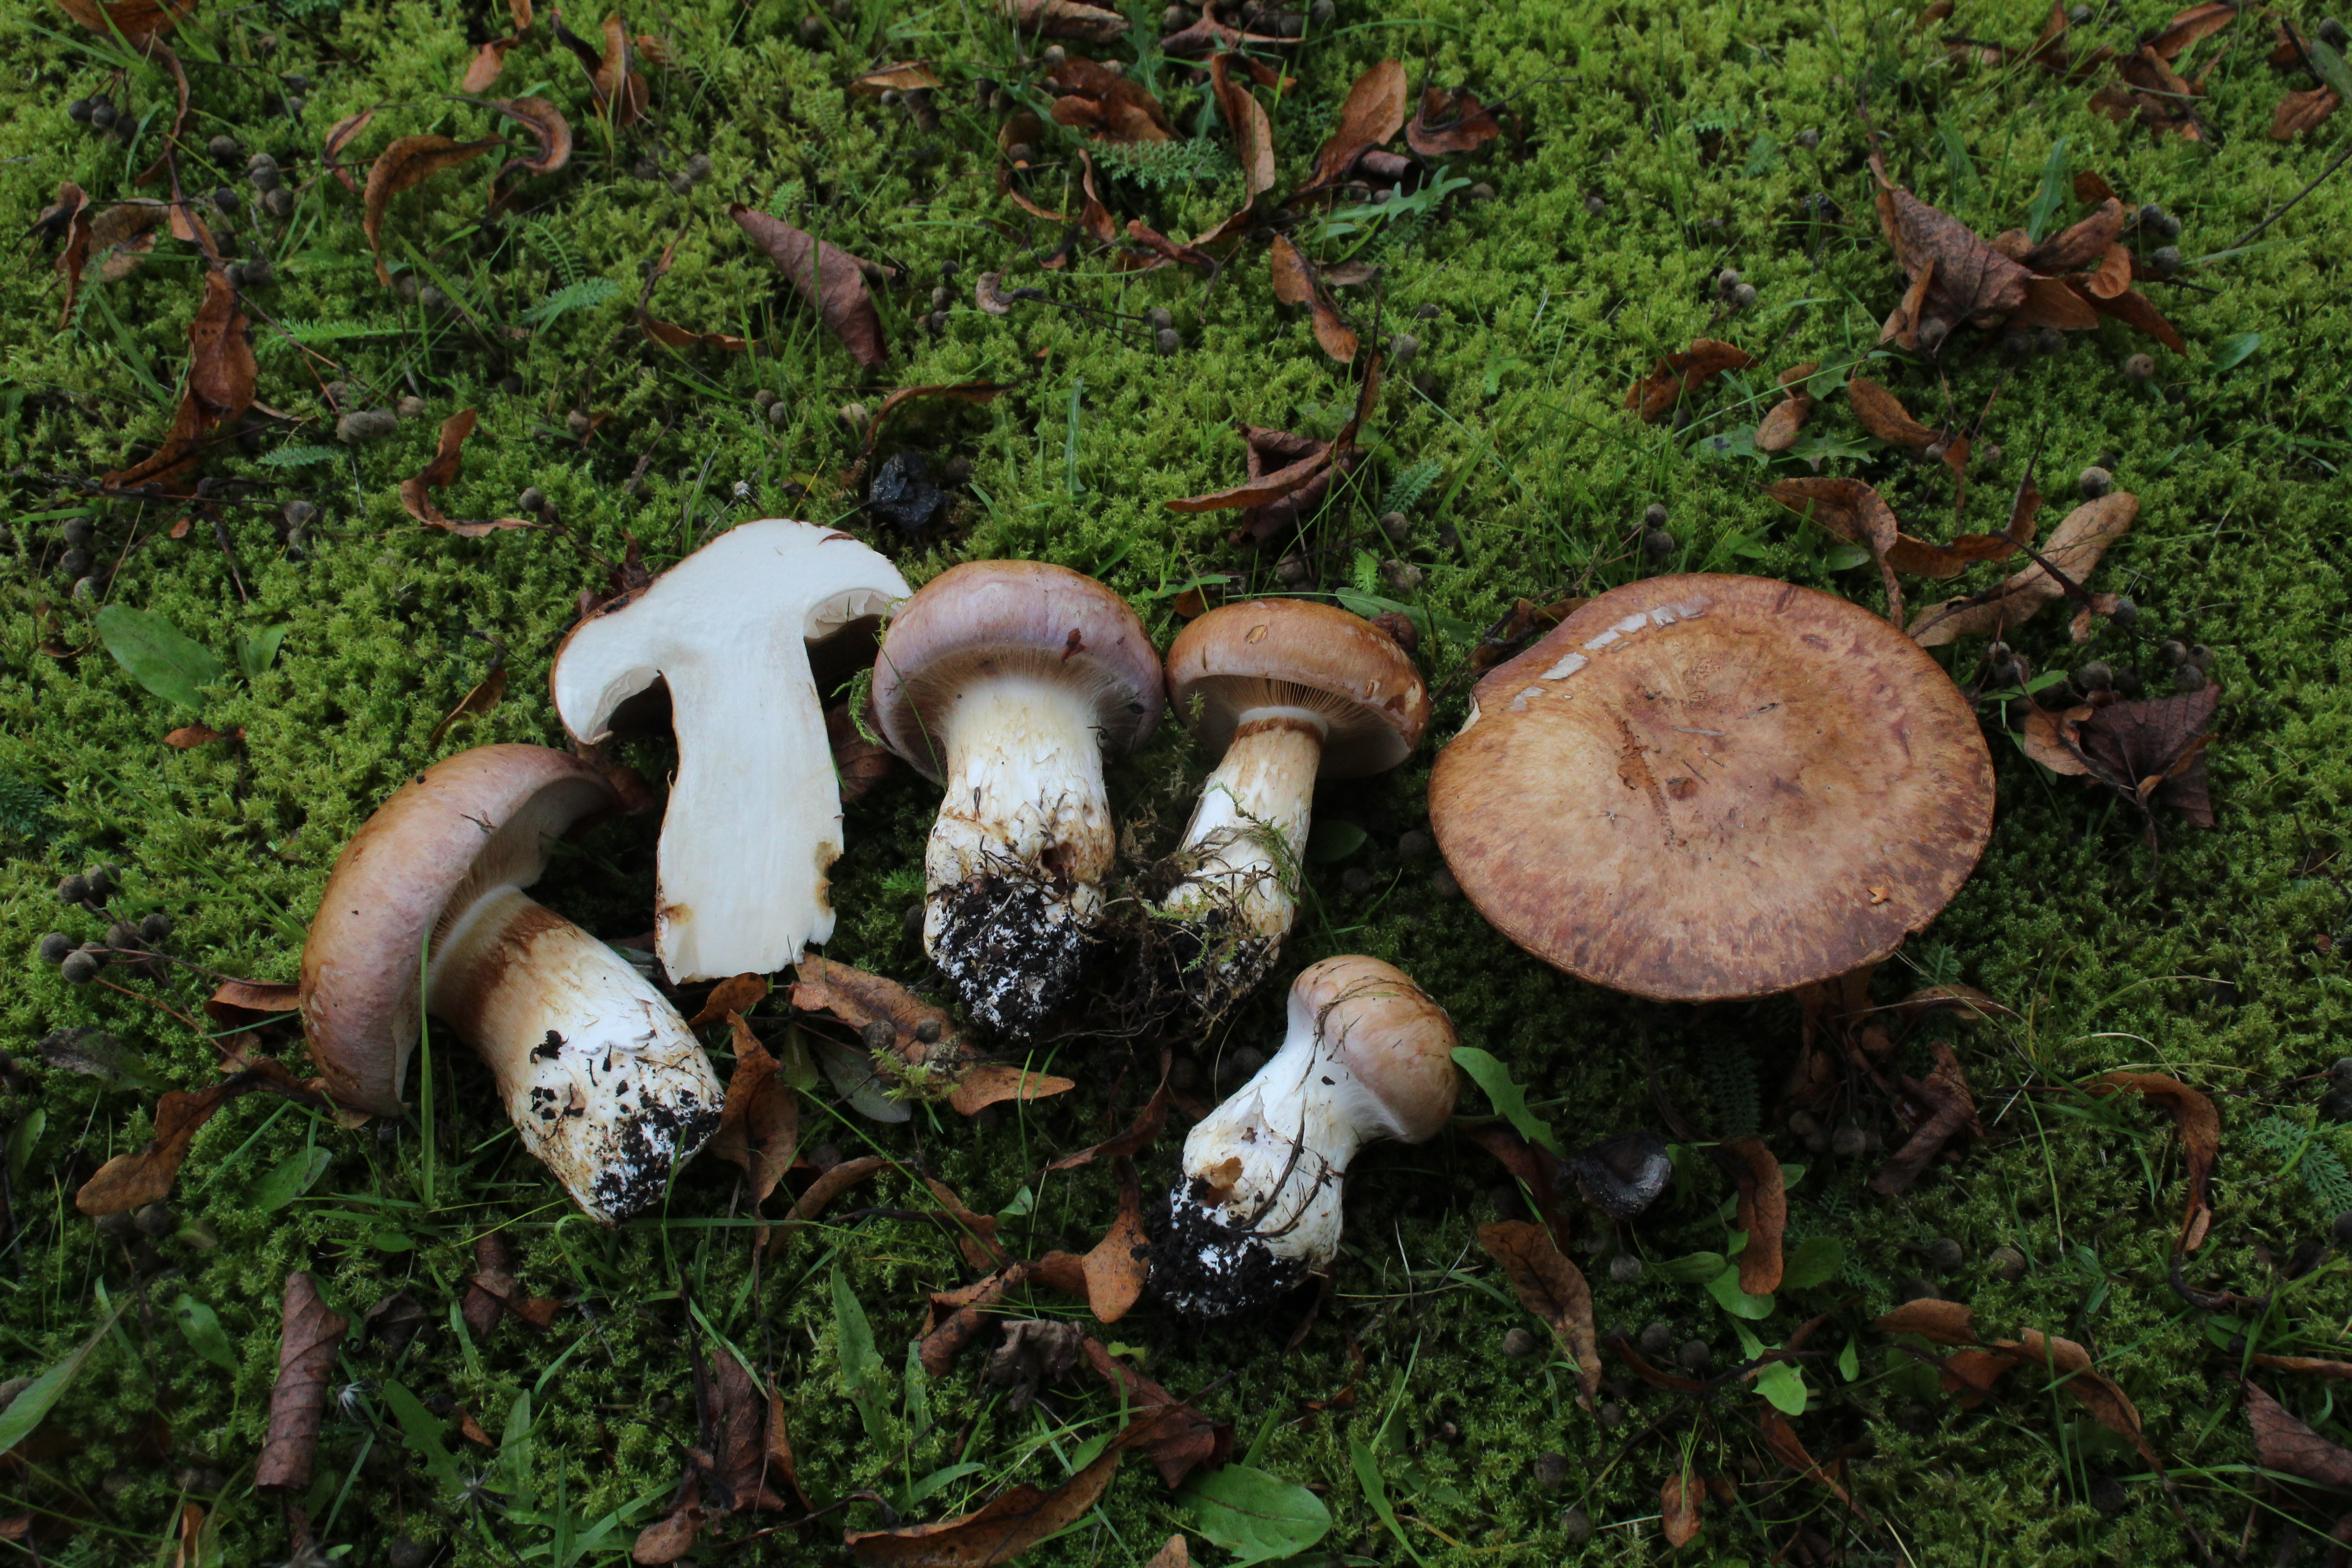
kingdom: Fungi
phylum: Basidiomycota
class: Agaricomycetes
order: Agaricales
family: Cortinariaceae
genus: Phlegmacium
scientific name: Phlegmacium balteatocumatile
